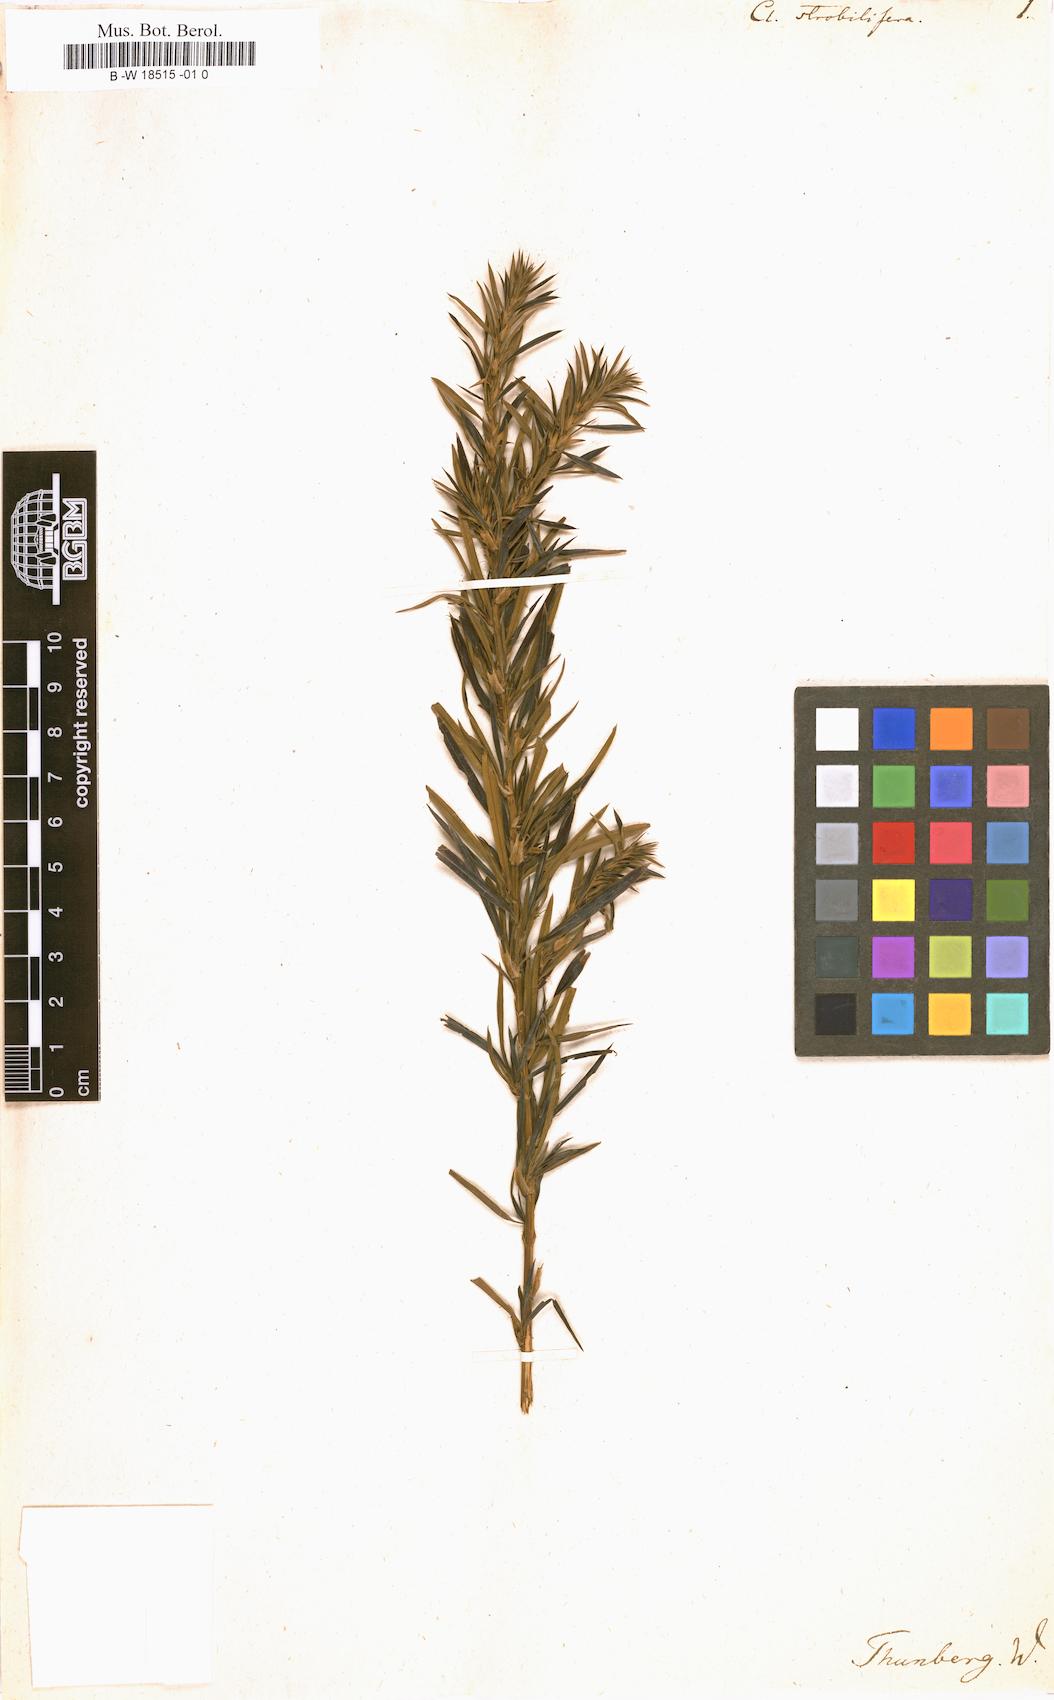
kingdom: Plantae
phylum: Tracheophyta
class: Magnoliopsida
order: Rosales
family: Rosaceae
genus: Cliffortia
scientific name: Cliffortia strobilifera
